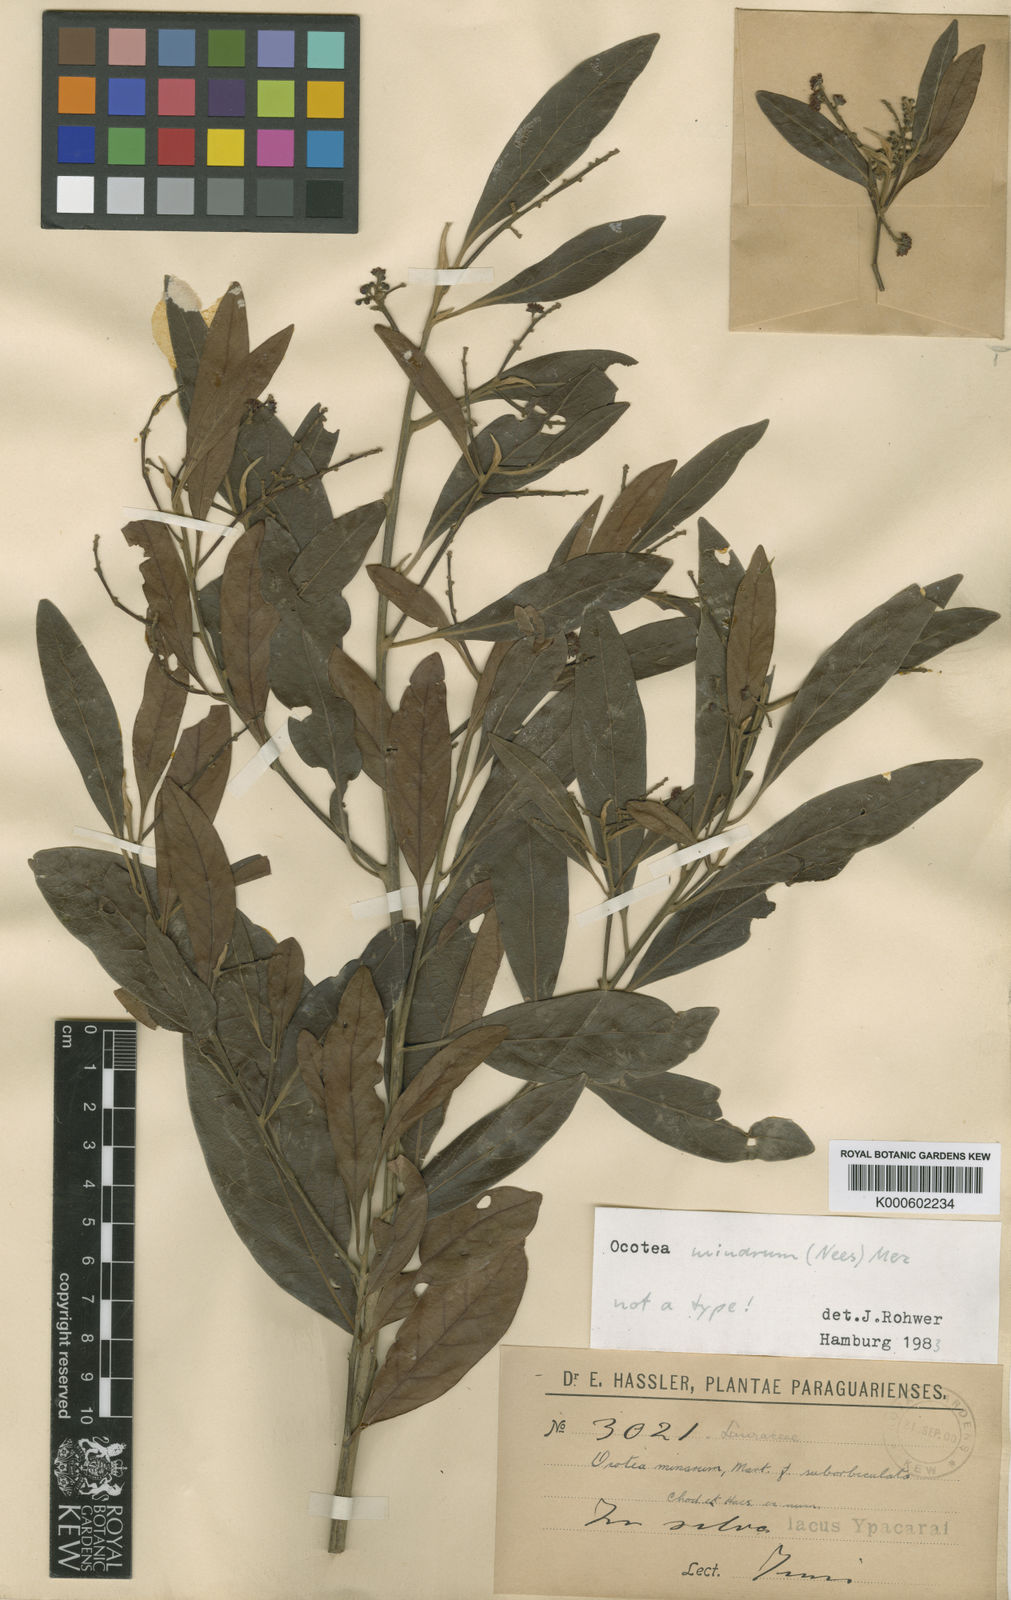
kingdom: Plantae
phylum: Tracheophyta
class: Magnoliopsida
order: Laurales
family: Lauraceae
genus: Ocotea
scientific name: Ocotea minarum
